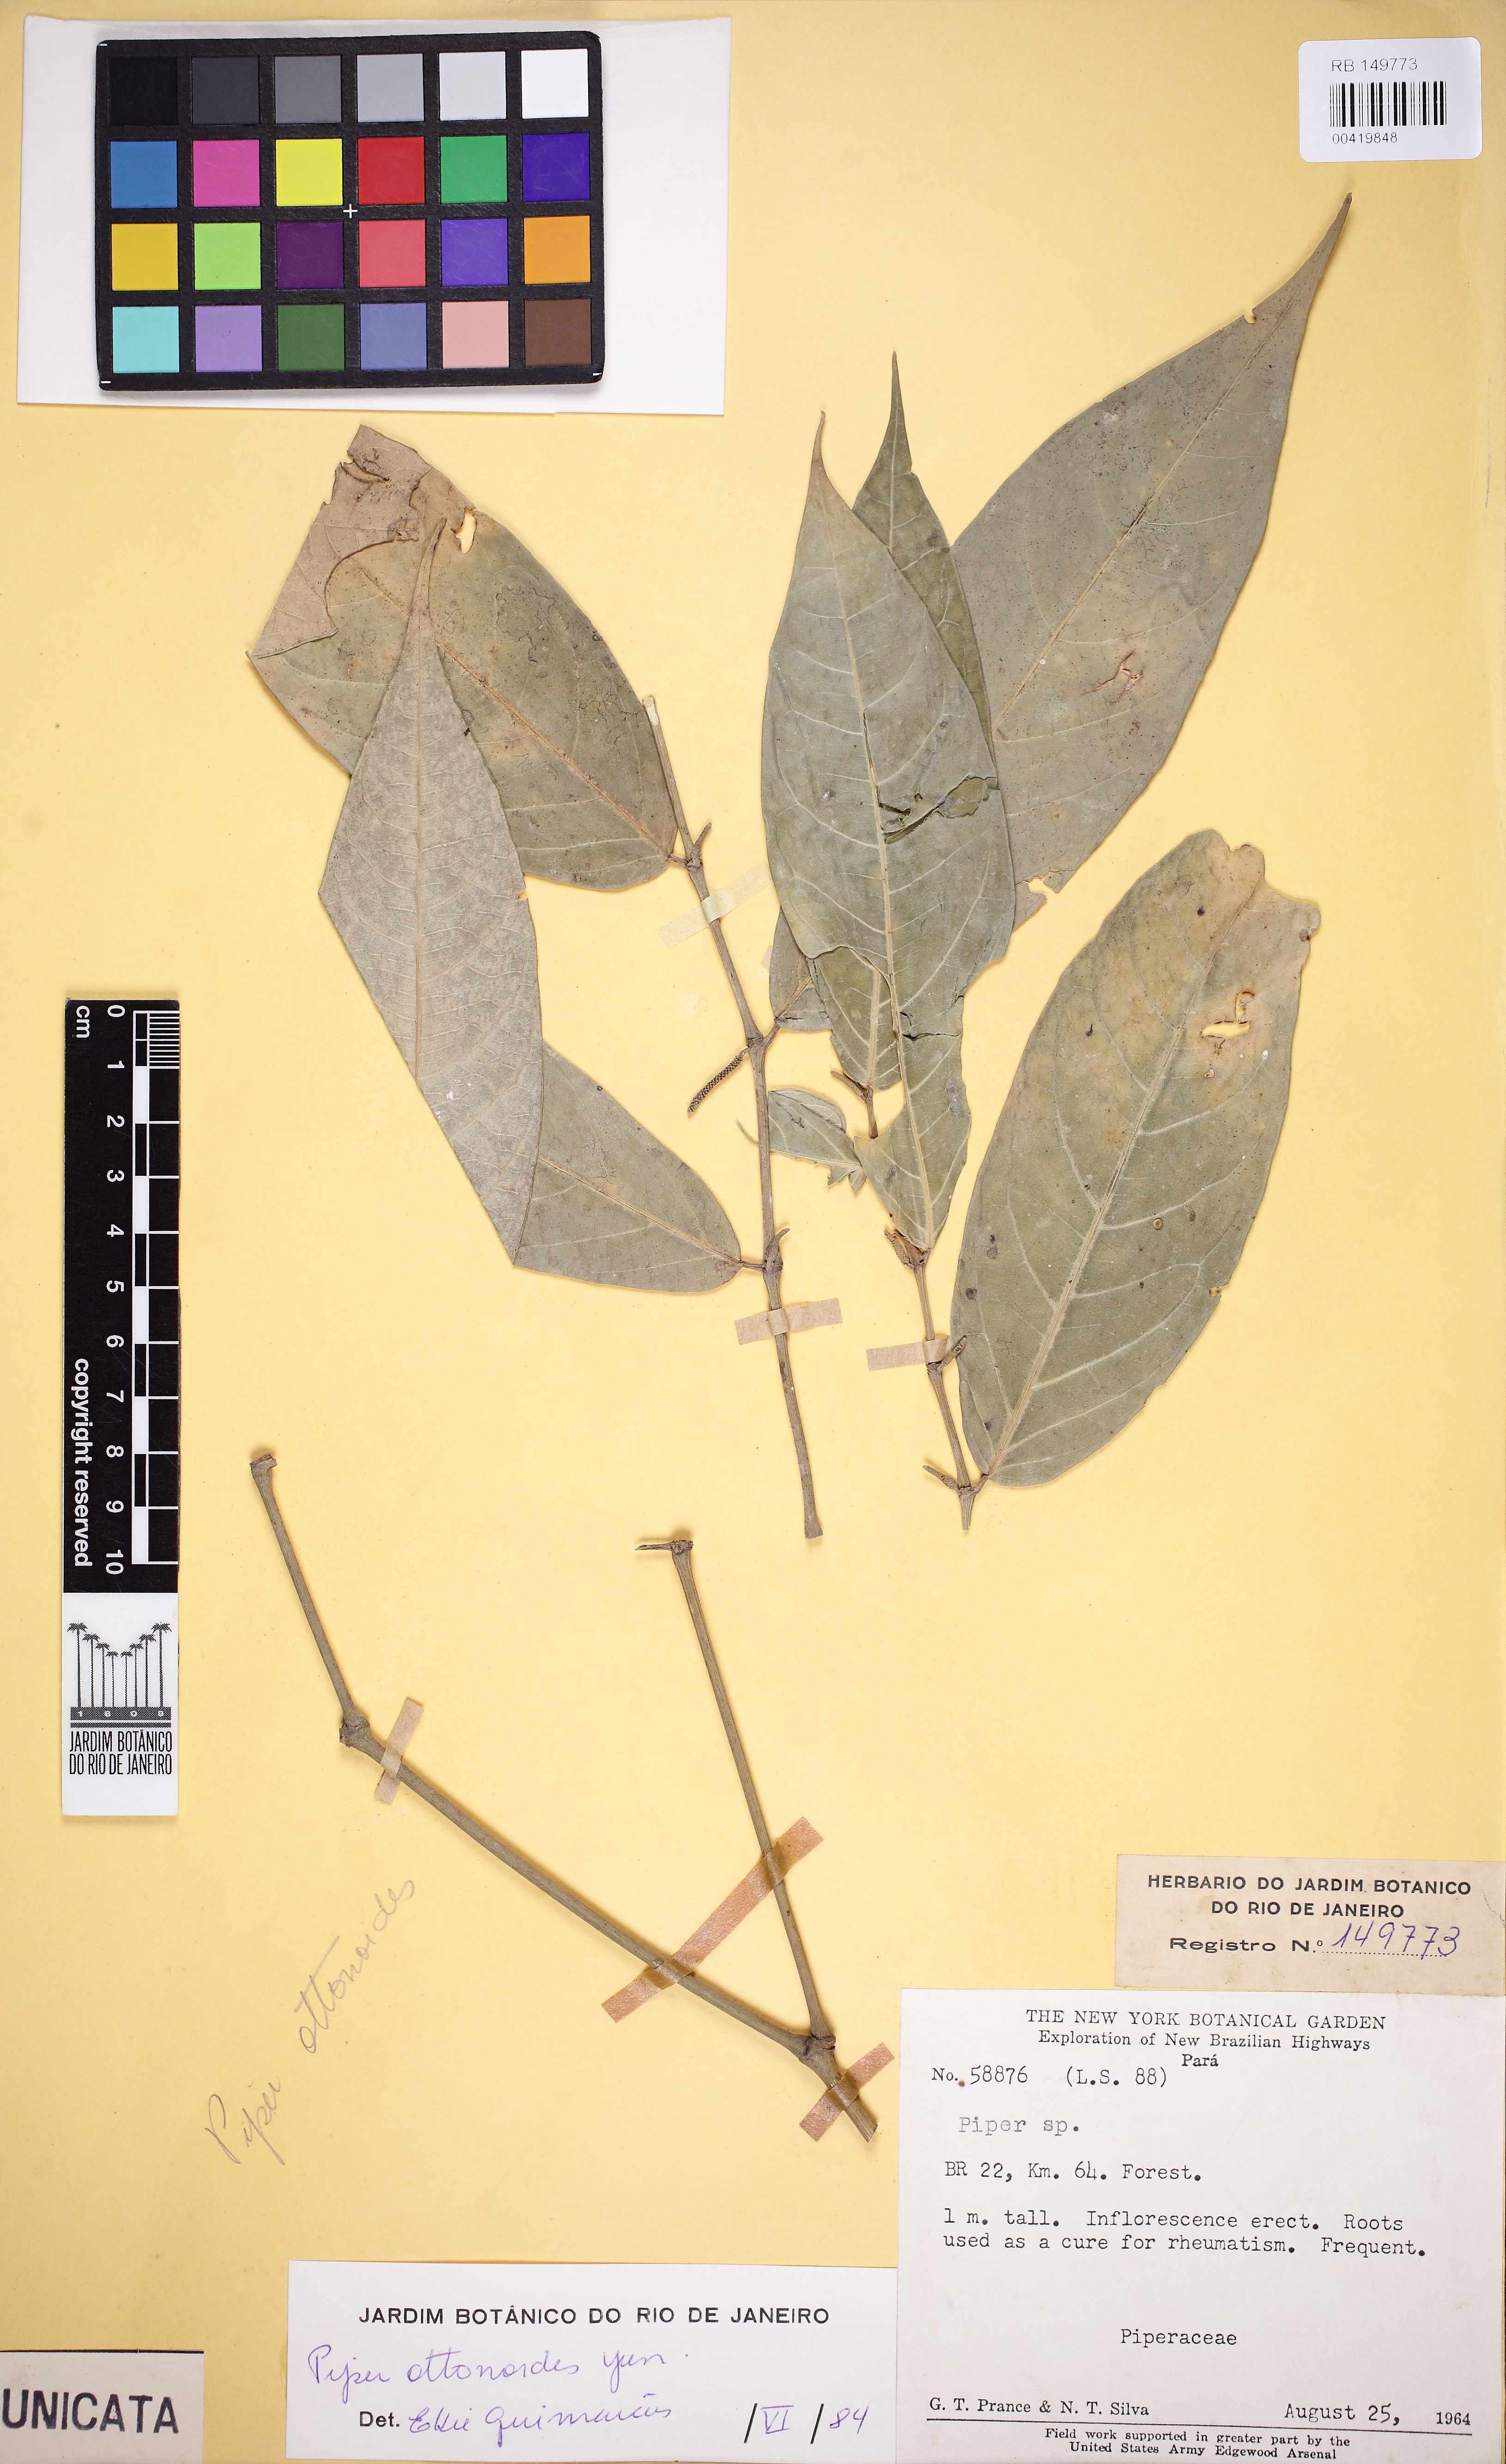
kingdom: Plantae
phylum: Tracheophyta
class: Magnoliopsida
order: Piperales
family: Piperaceae
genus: Piper
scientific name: Piper ottonoides
